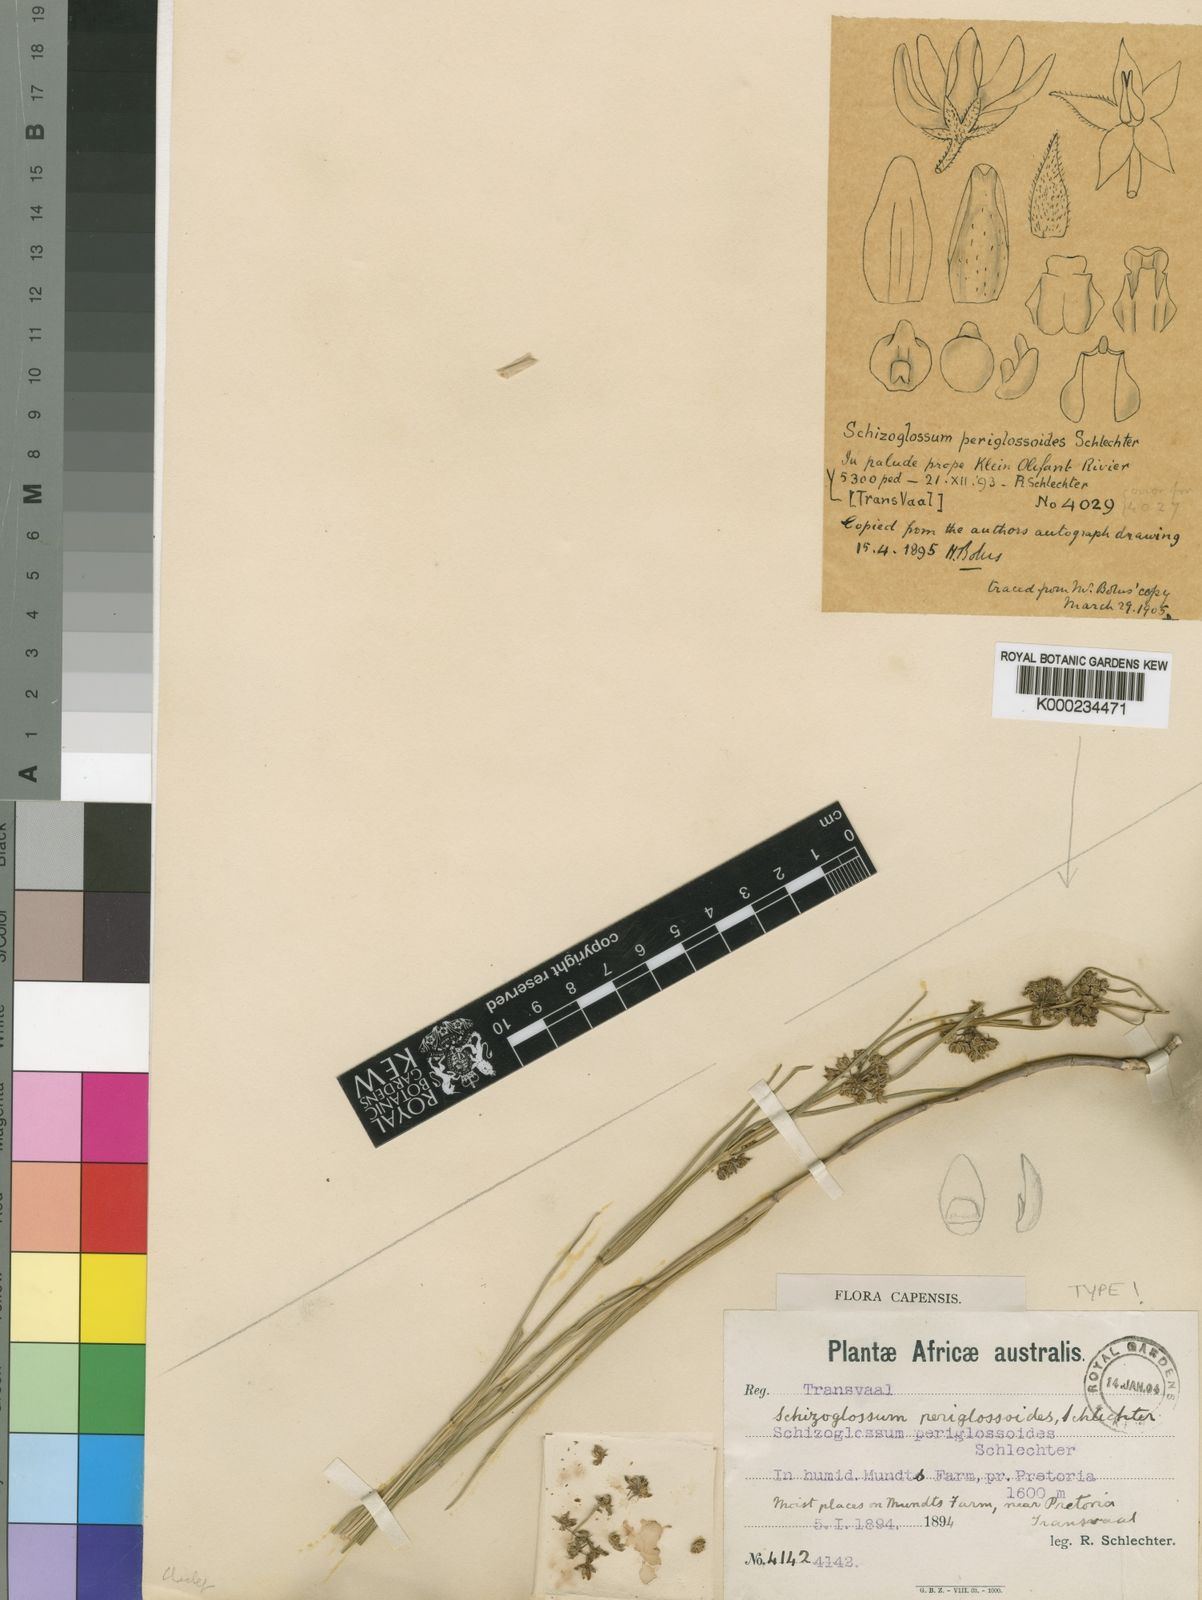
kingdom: Plantae
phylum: Tracheophyta
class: Magnoliopsida
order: Gentianales
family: Apocynaceae
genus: Stenostelma
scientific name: Stenostelma periglossoides
